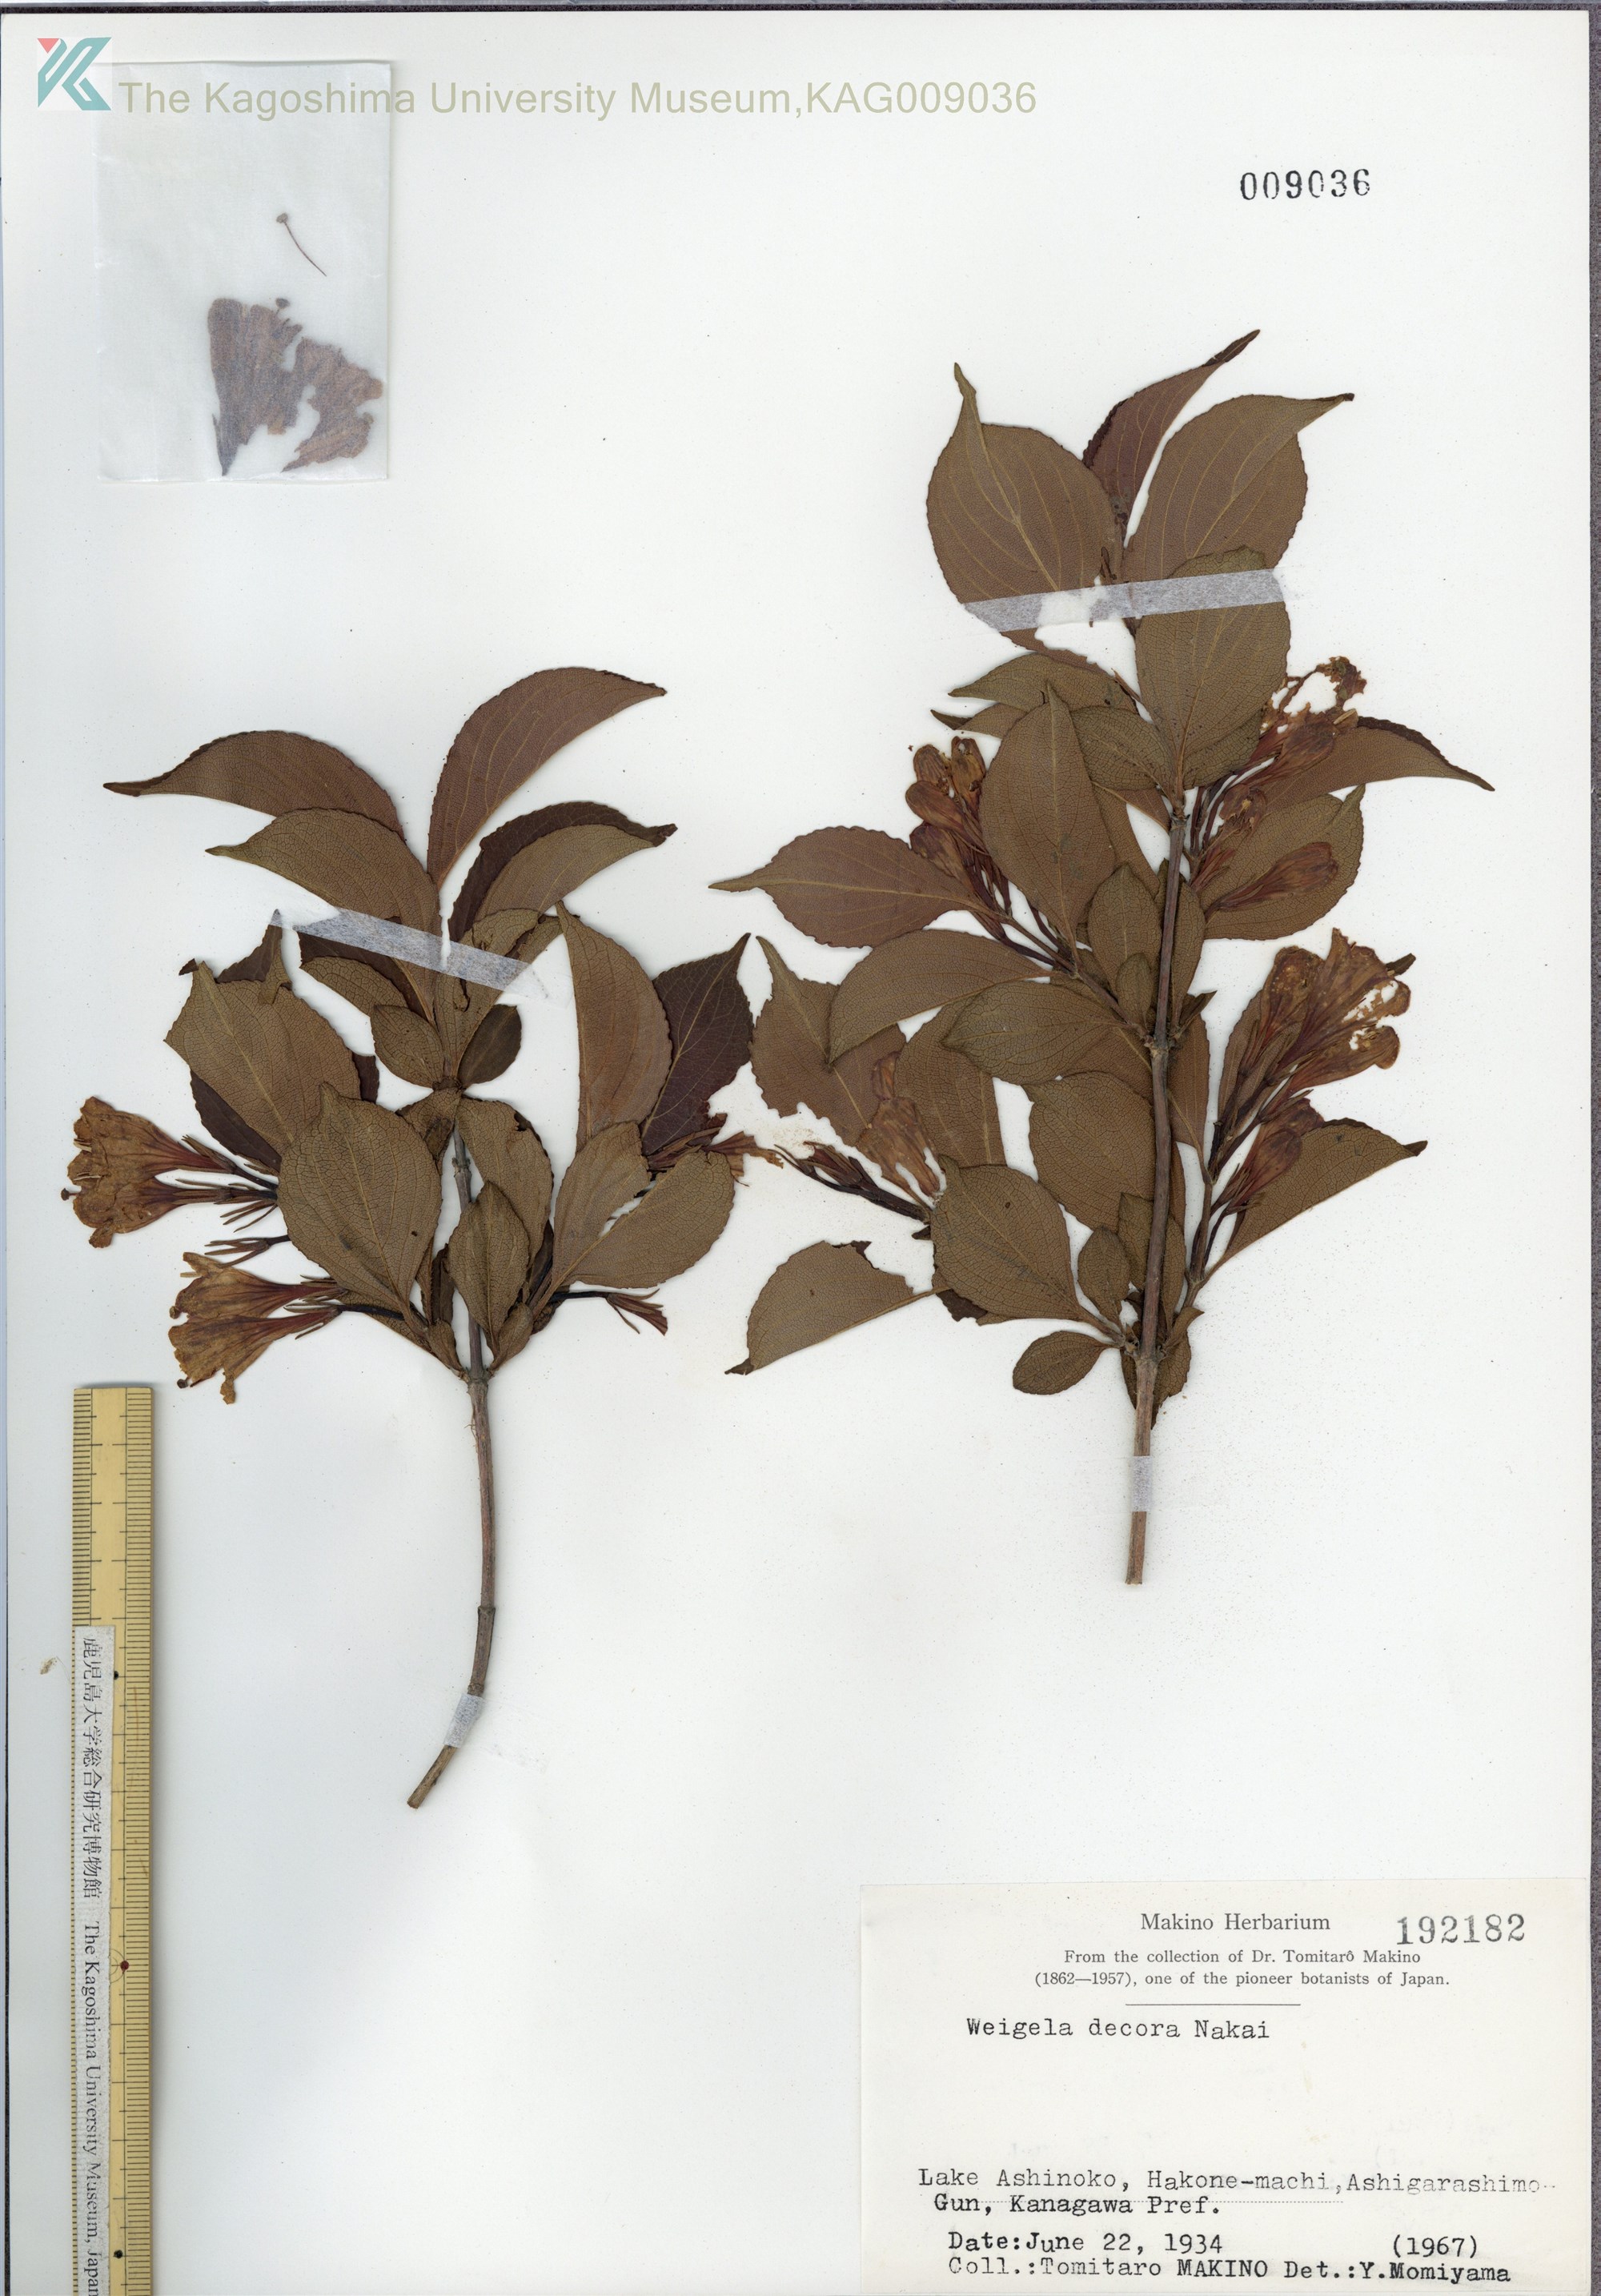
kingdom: Plantae
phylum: Tracheophyta
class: Magnoliopsida
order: Dipsacales
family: Caprifoliaceae
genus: Weigela
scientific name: Weigela decora
